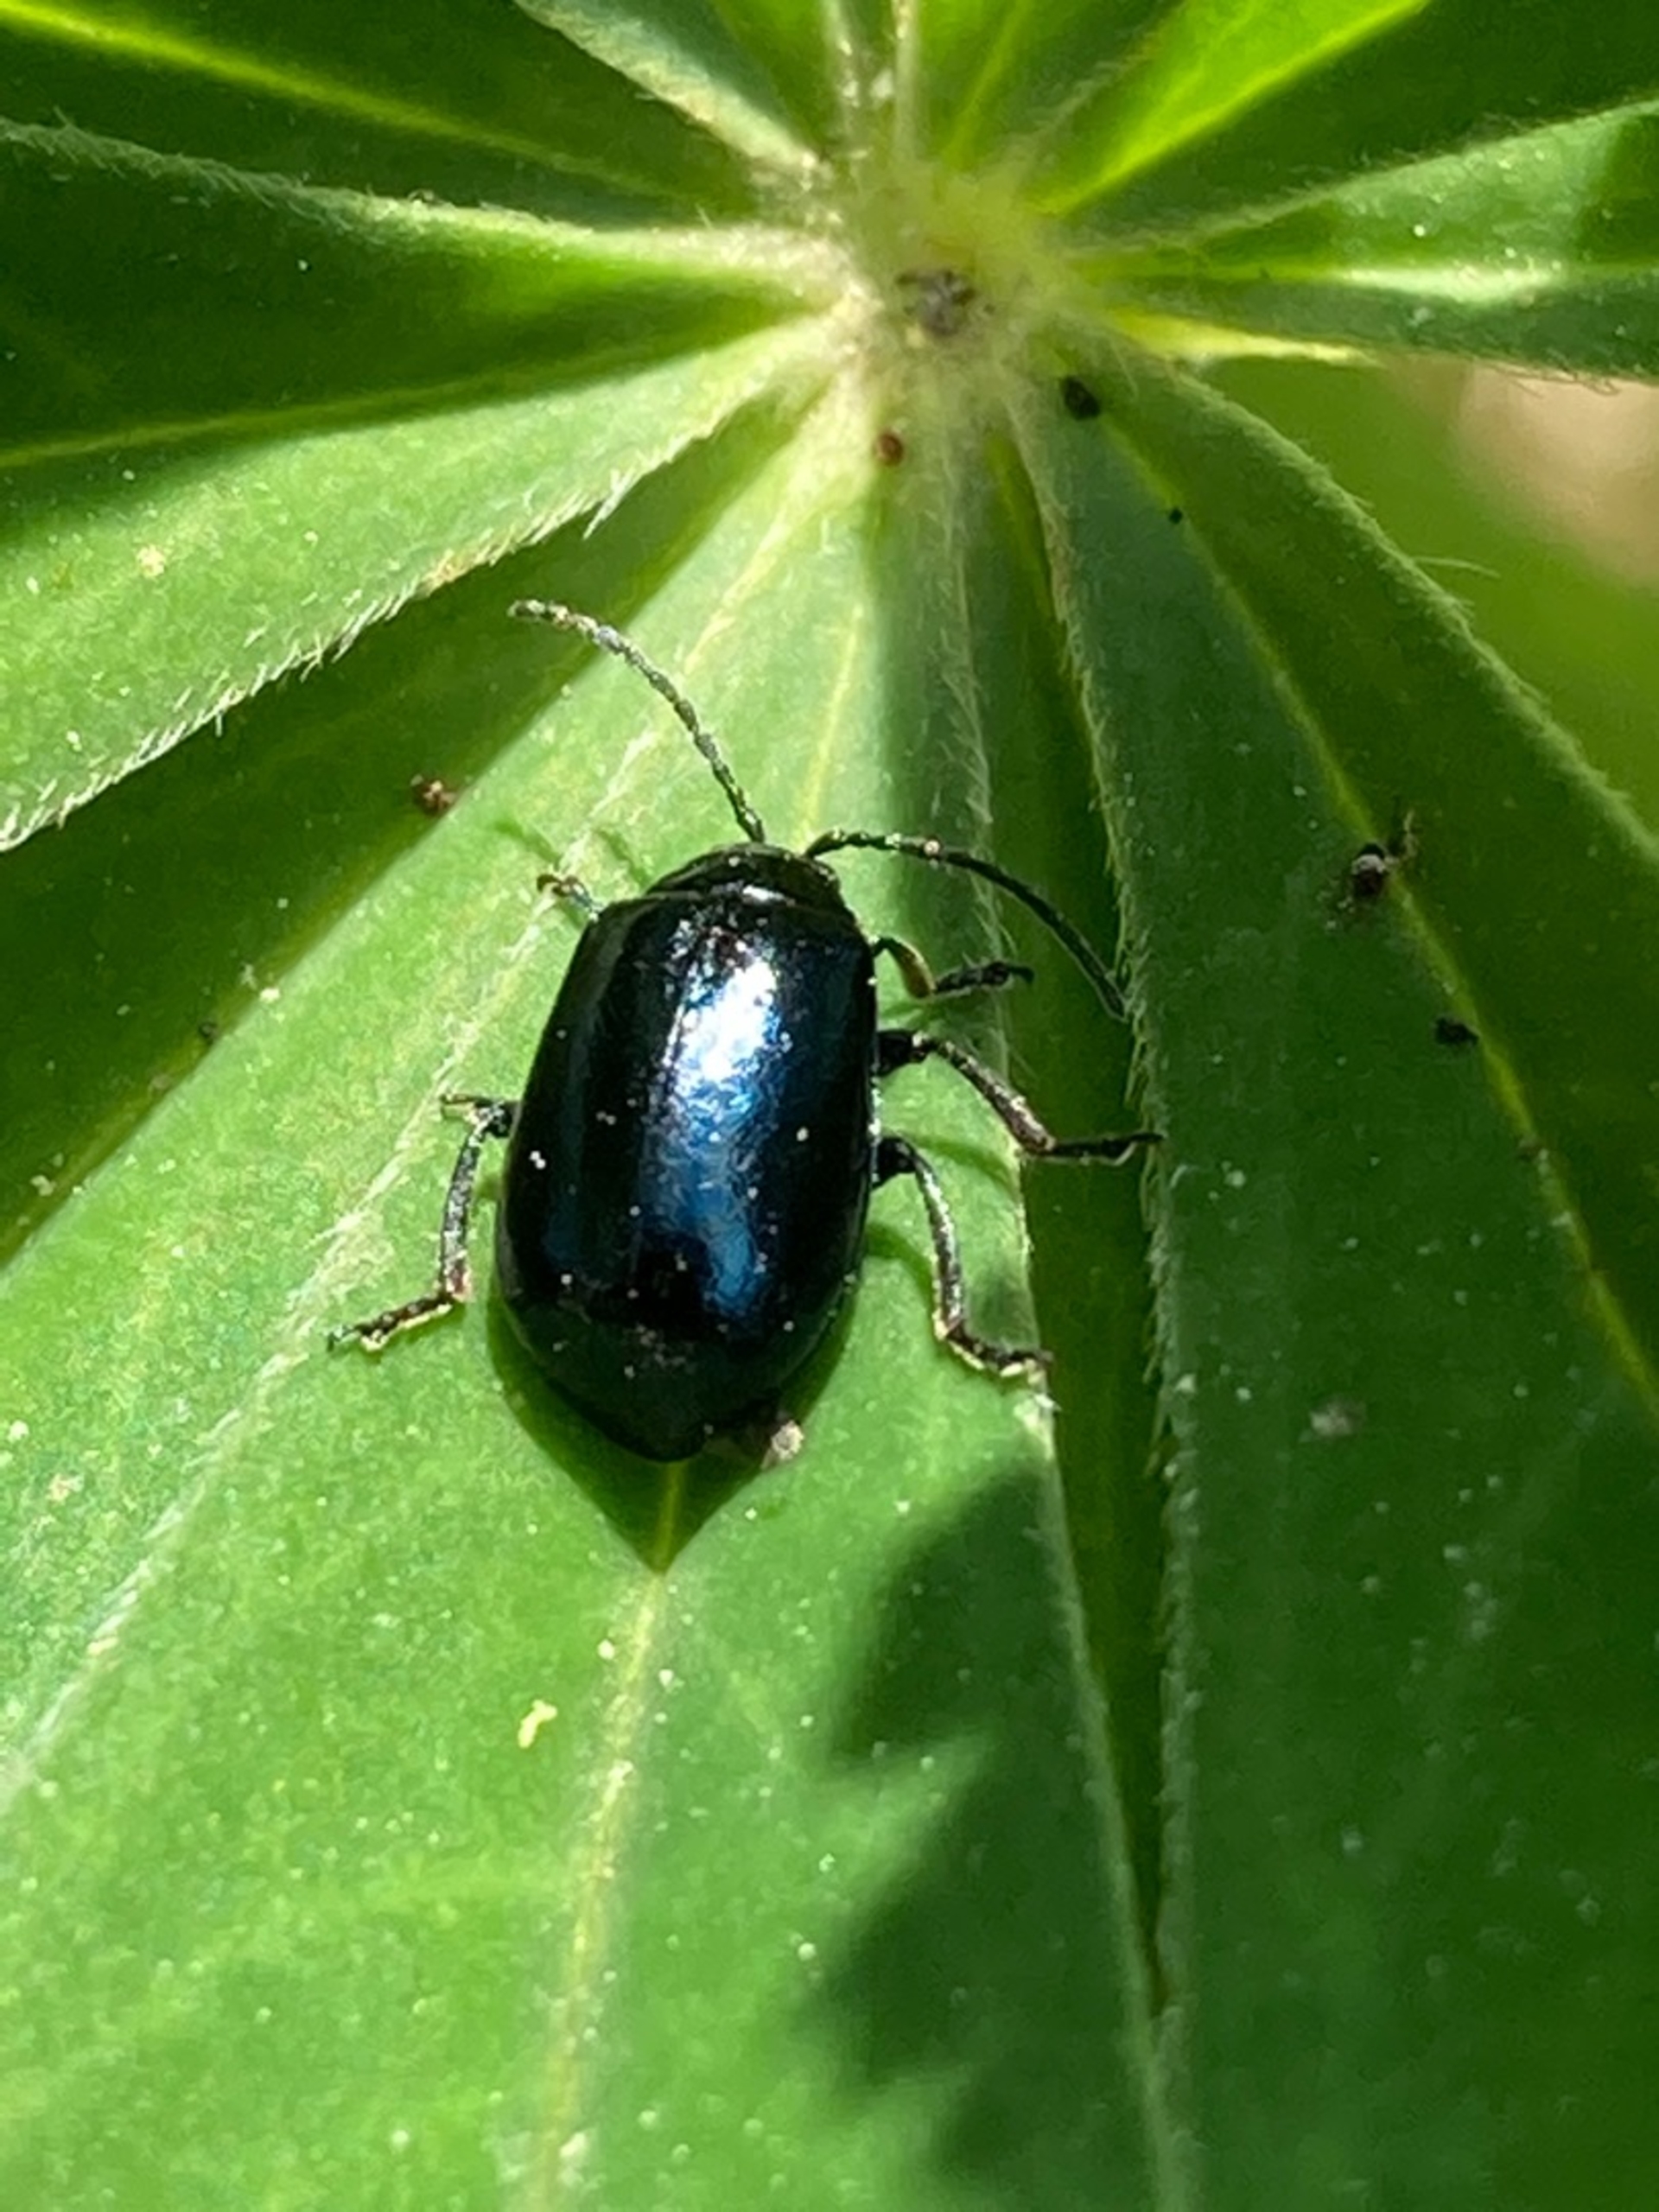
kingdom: Animalia
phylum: Arthropoda
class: Insecta
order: Coleoptera
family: Chrysomelidae
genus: Agelastica
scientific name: Agelastica alni
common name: Ellebladbille
